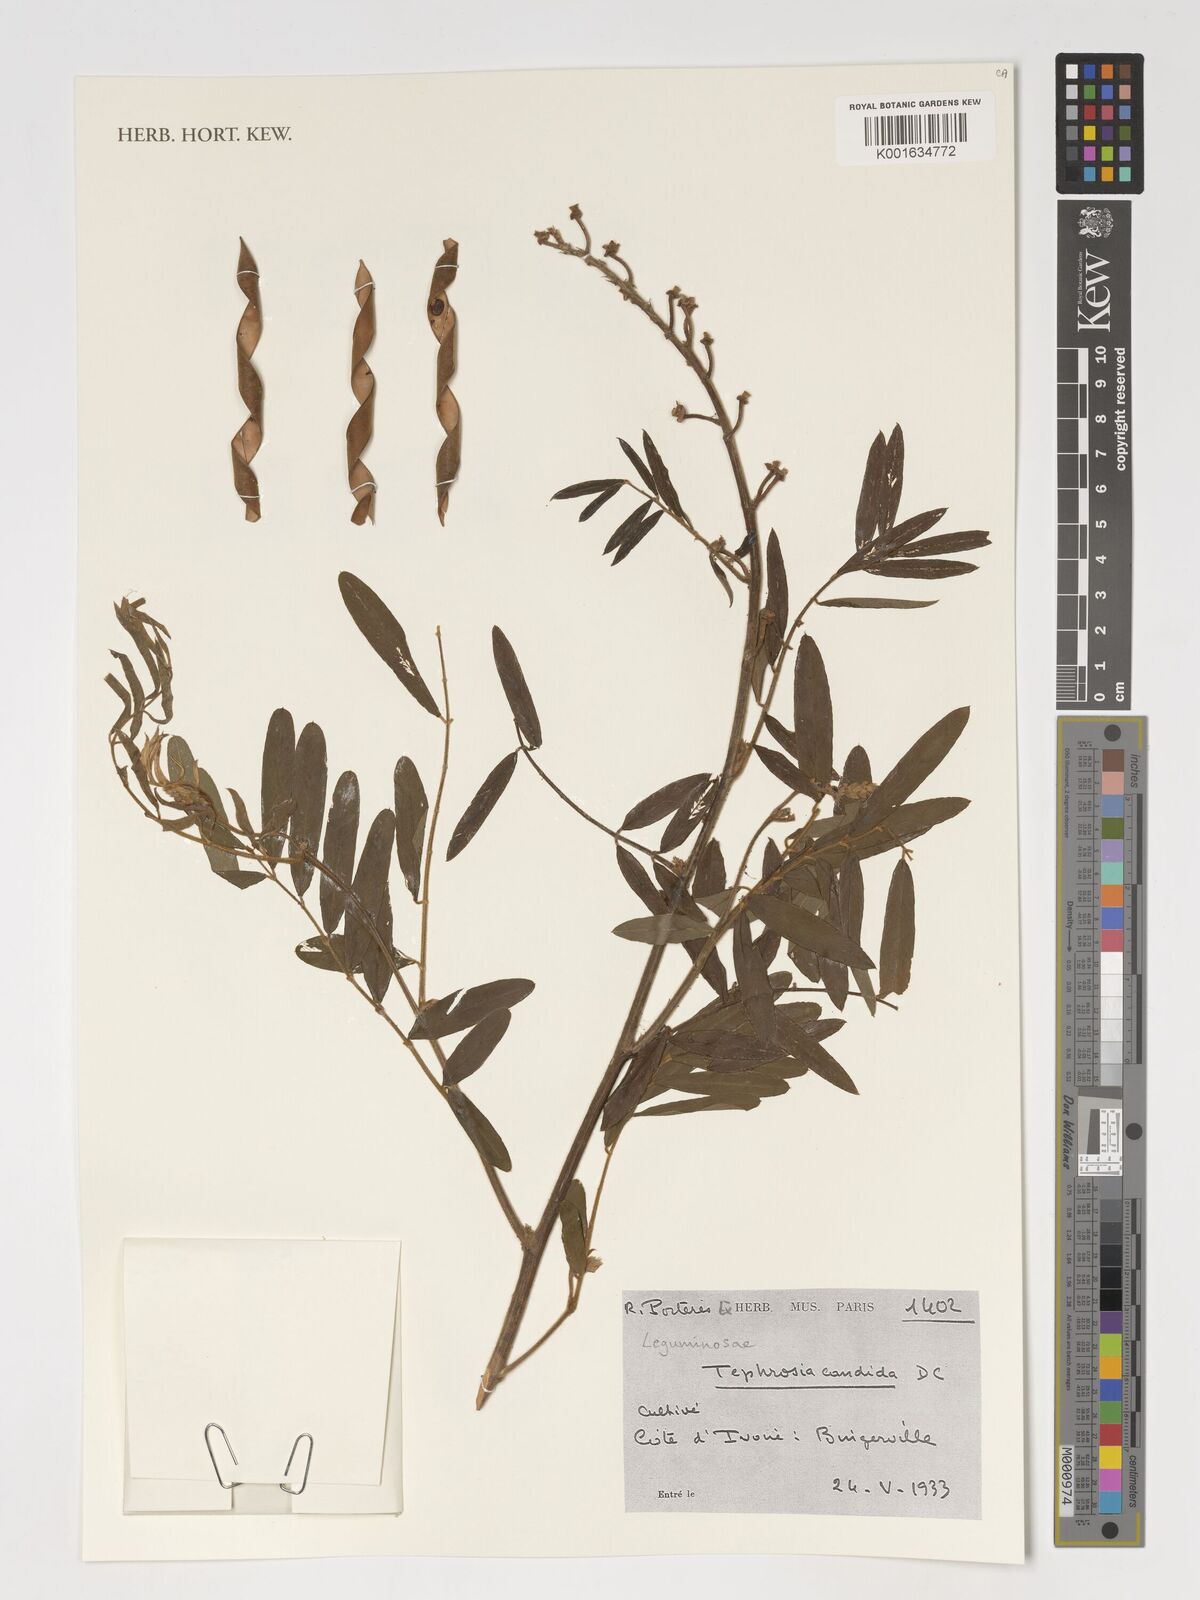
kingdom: Plantae
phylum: Tracheophyta
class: Magnoliopsida
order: Fabales
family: Fabaceae
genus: Tephrosia
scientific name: Tephrosia candida
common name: White tephrosia
